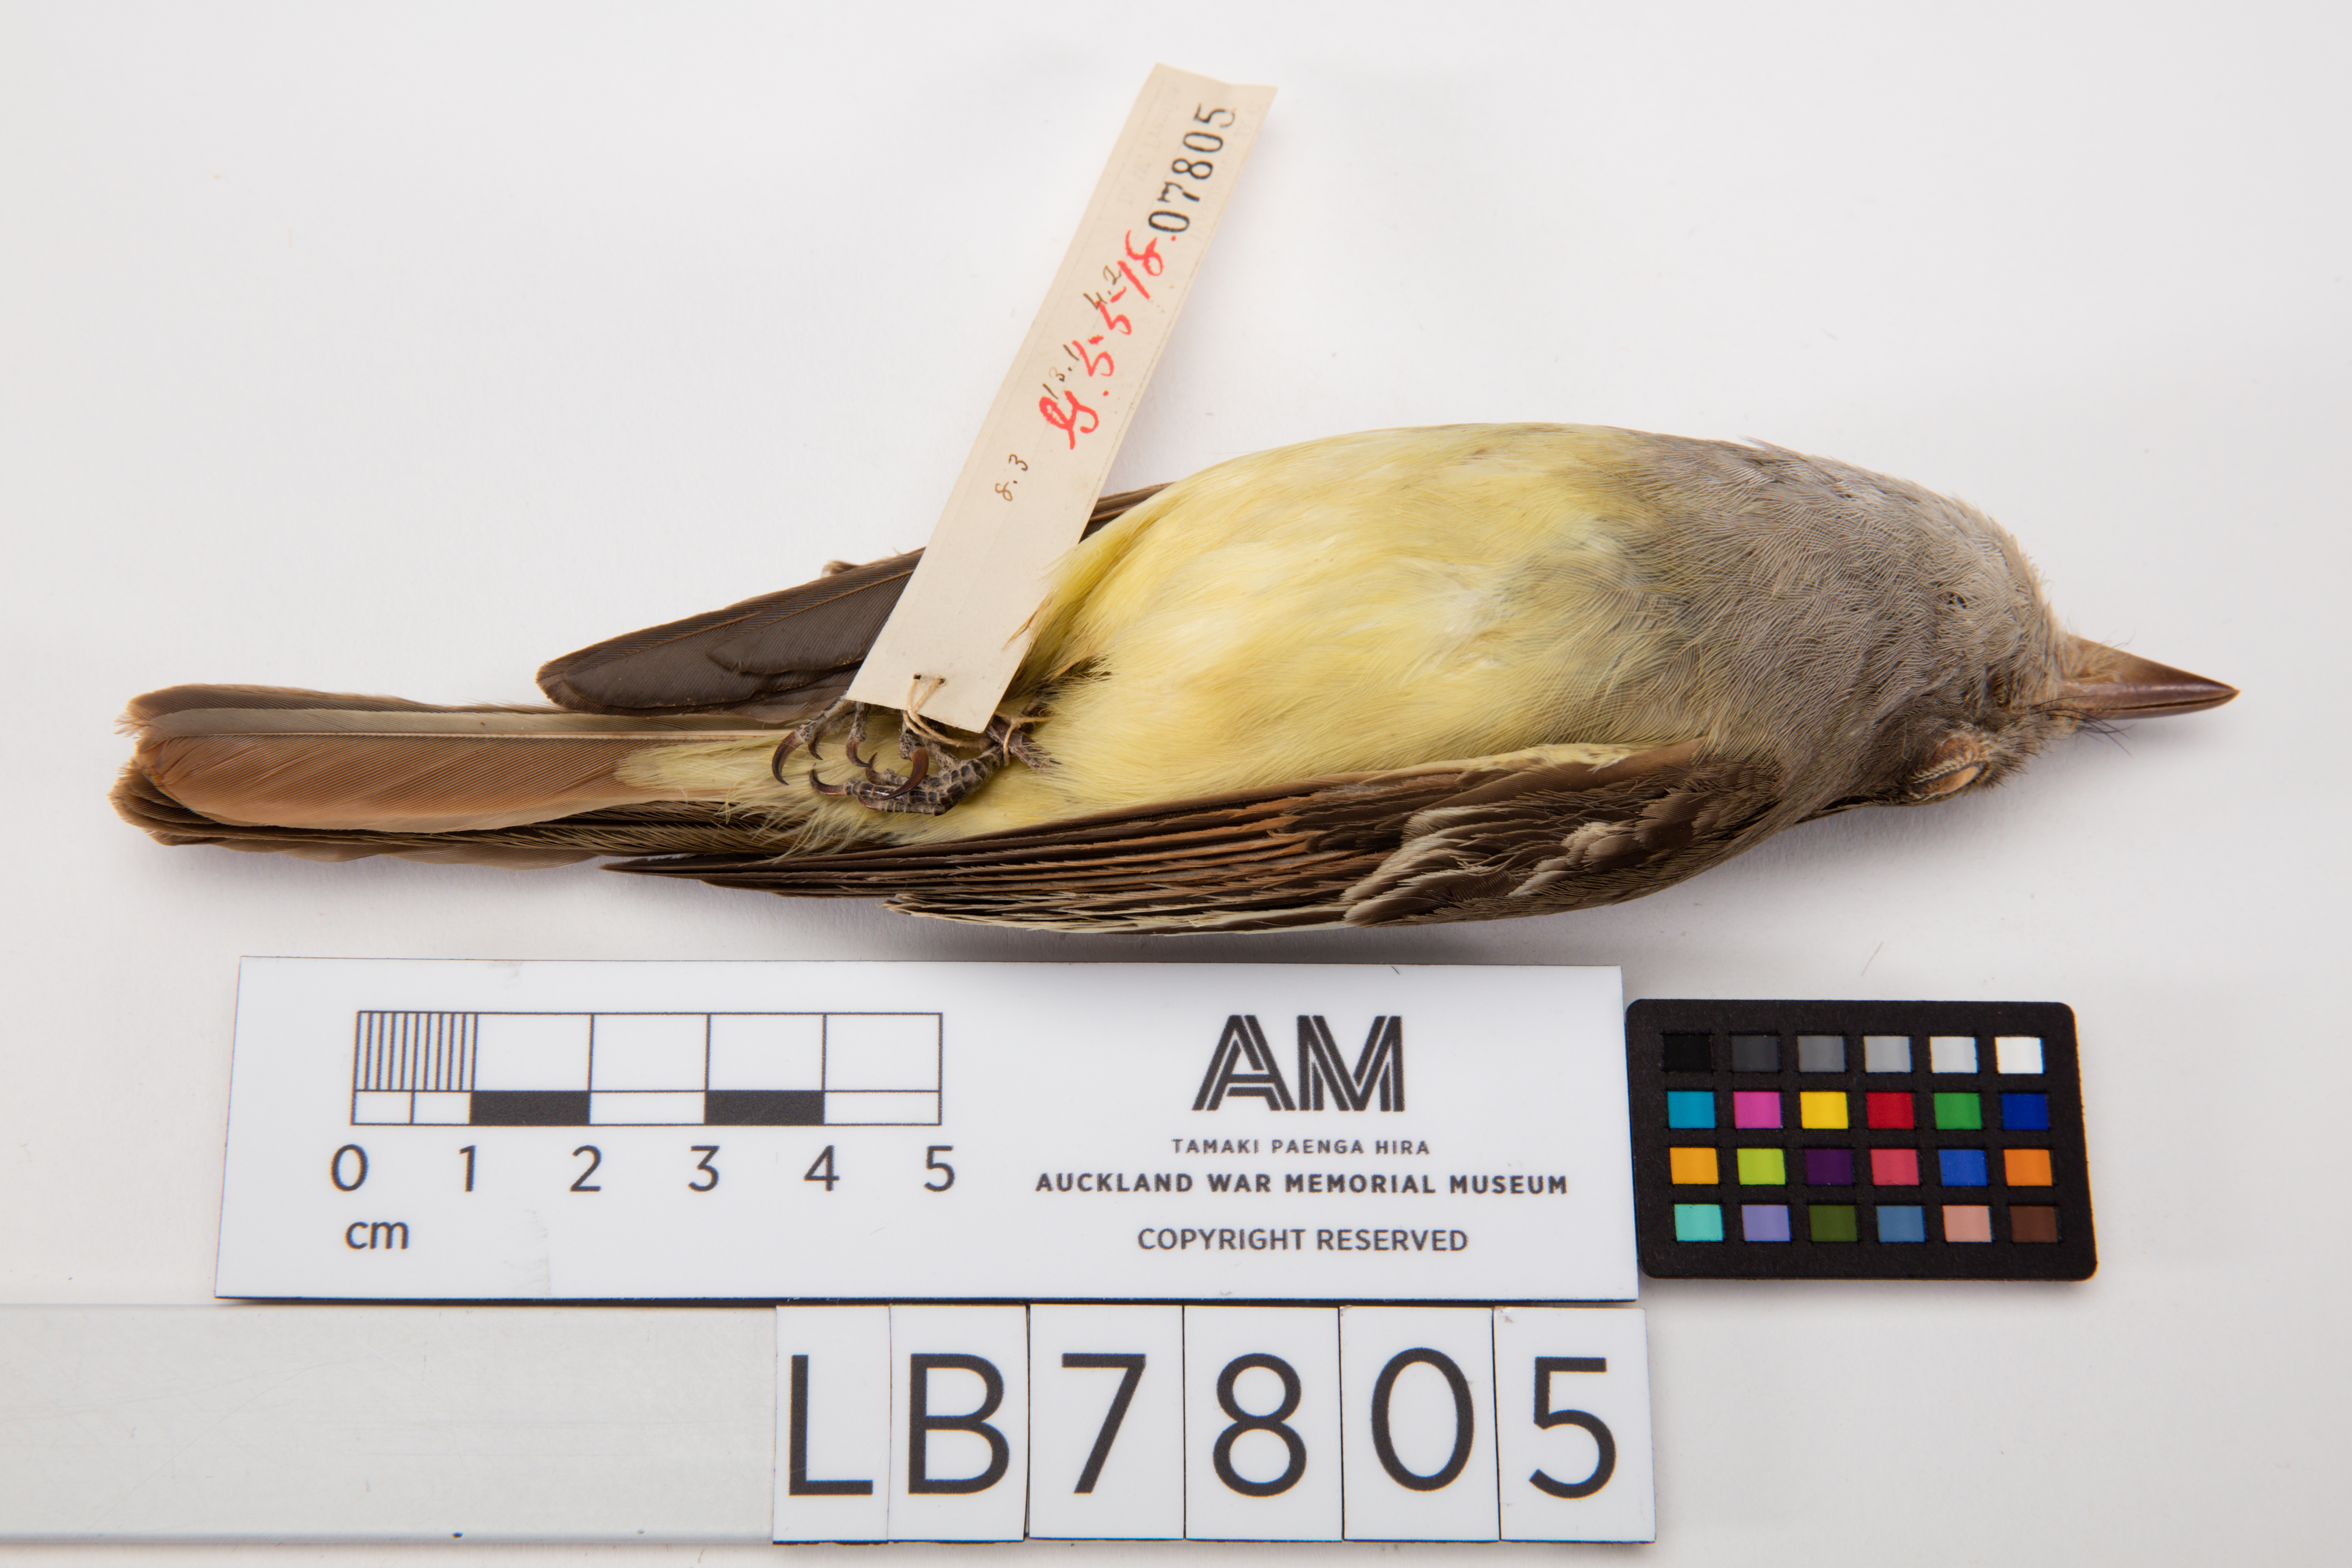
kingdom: Animalia
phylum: Chordata
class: Aves
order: Passeriformes
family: Tyrannidae
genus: Myiarchus
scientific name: Myiarchus crinitus
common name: Great crested flycatcher
